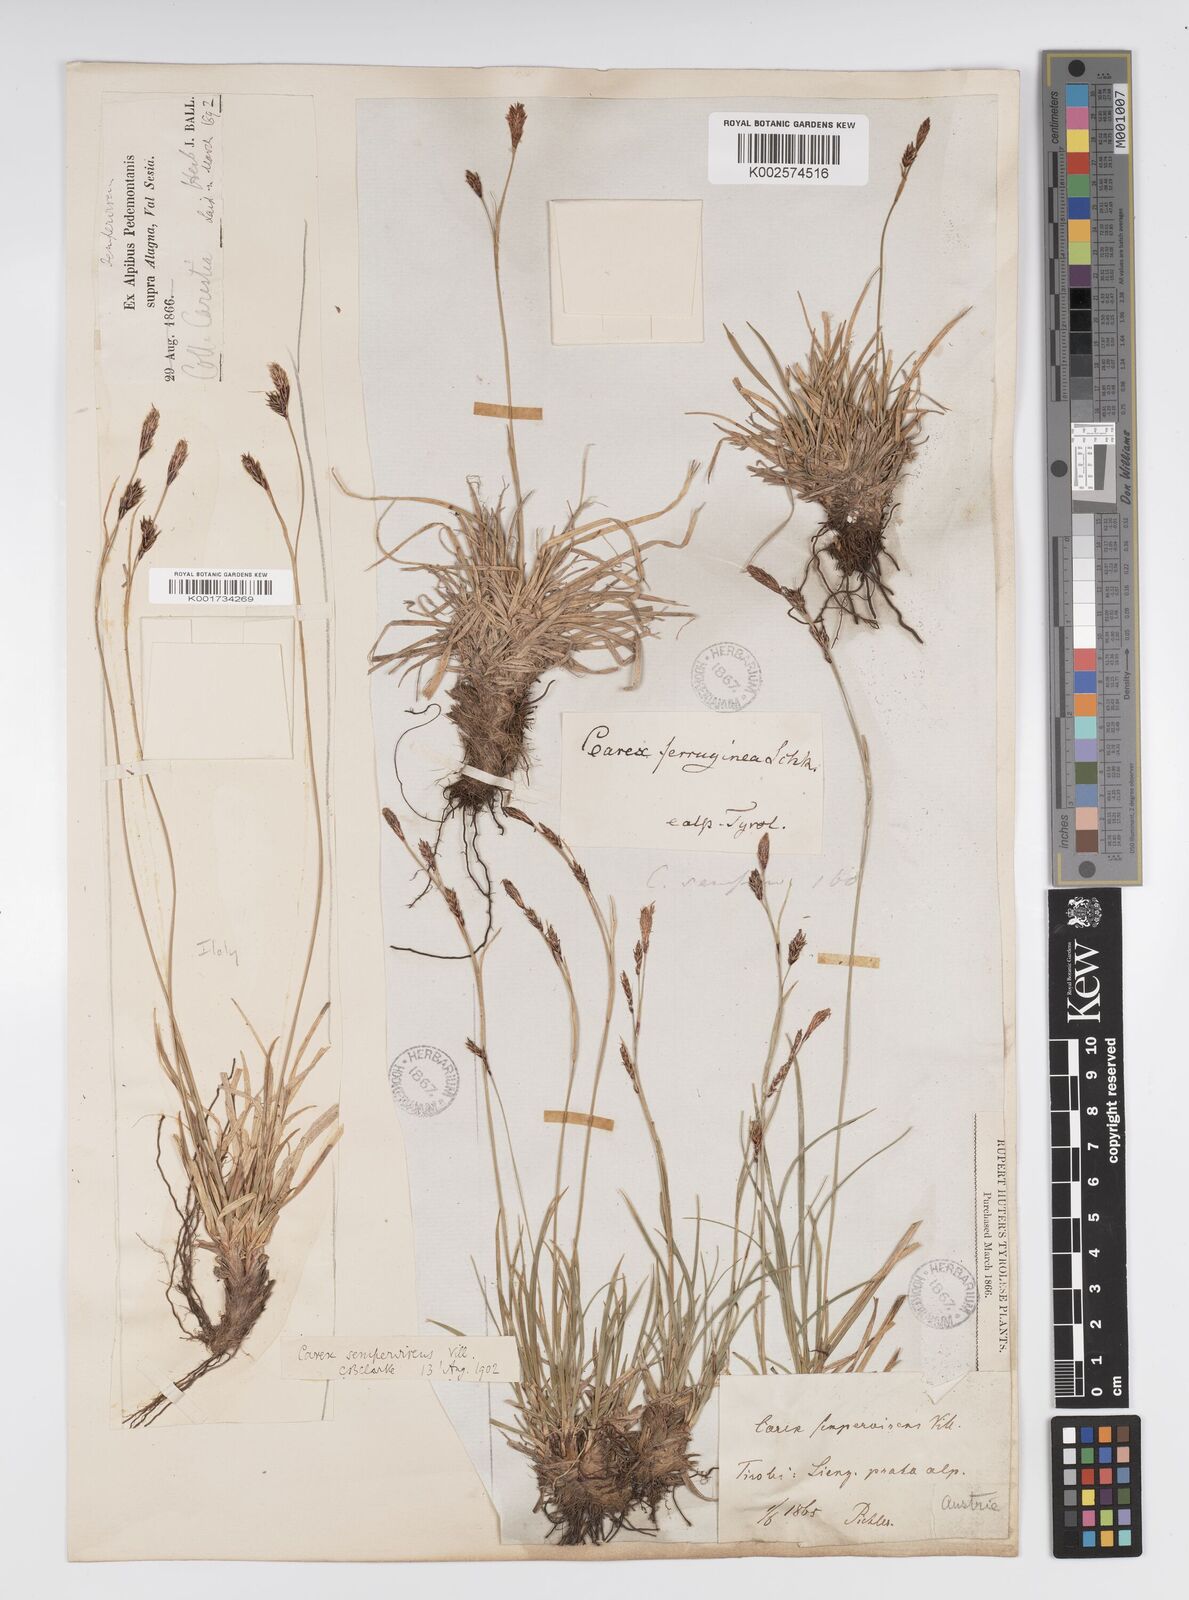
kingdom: Plantae
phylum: Tracheophyta
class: Liliopsida
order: Poales
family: Cyperaceae
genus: Carex
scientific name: Carex sempervirens
